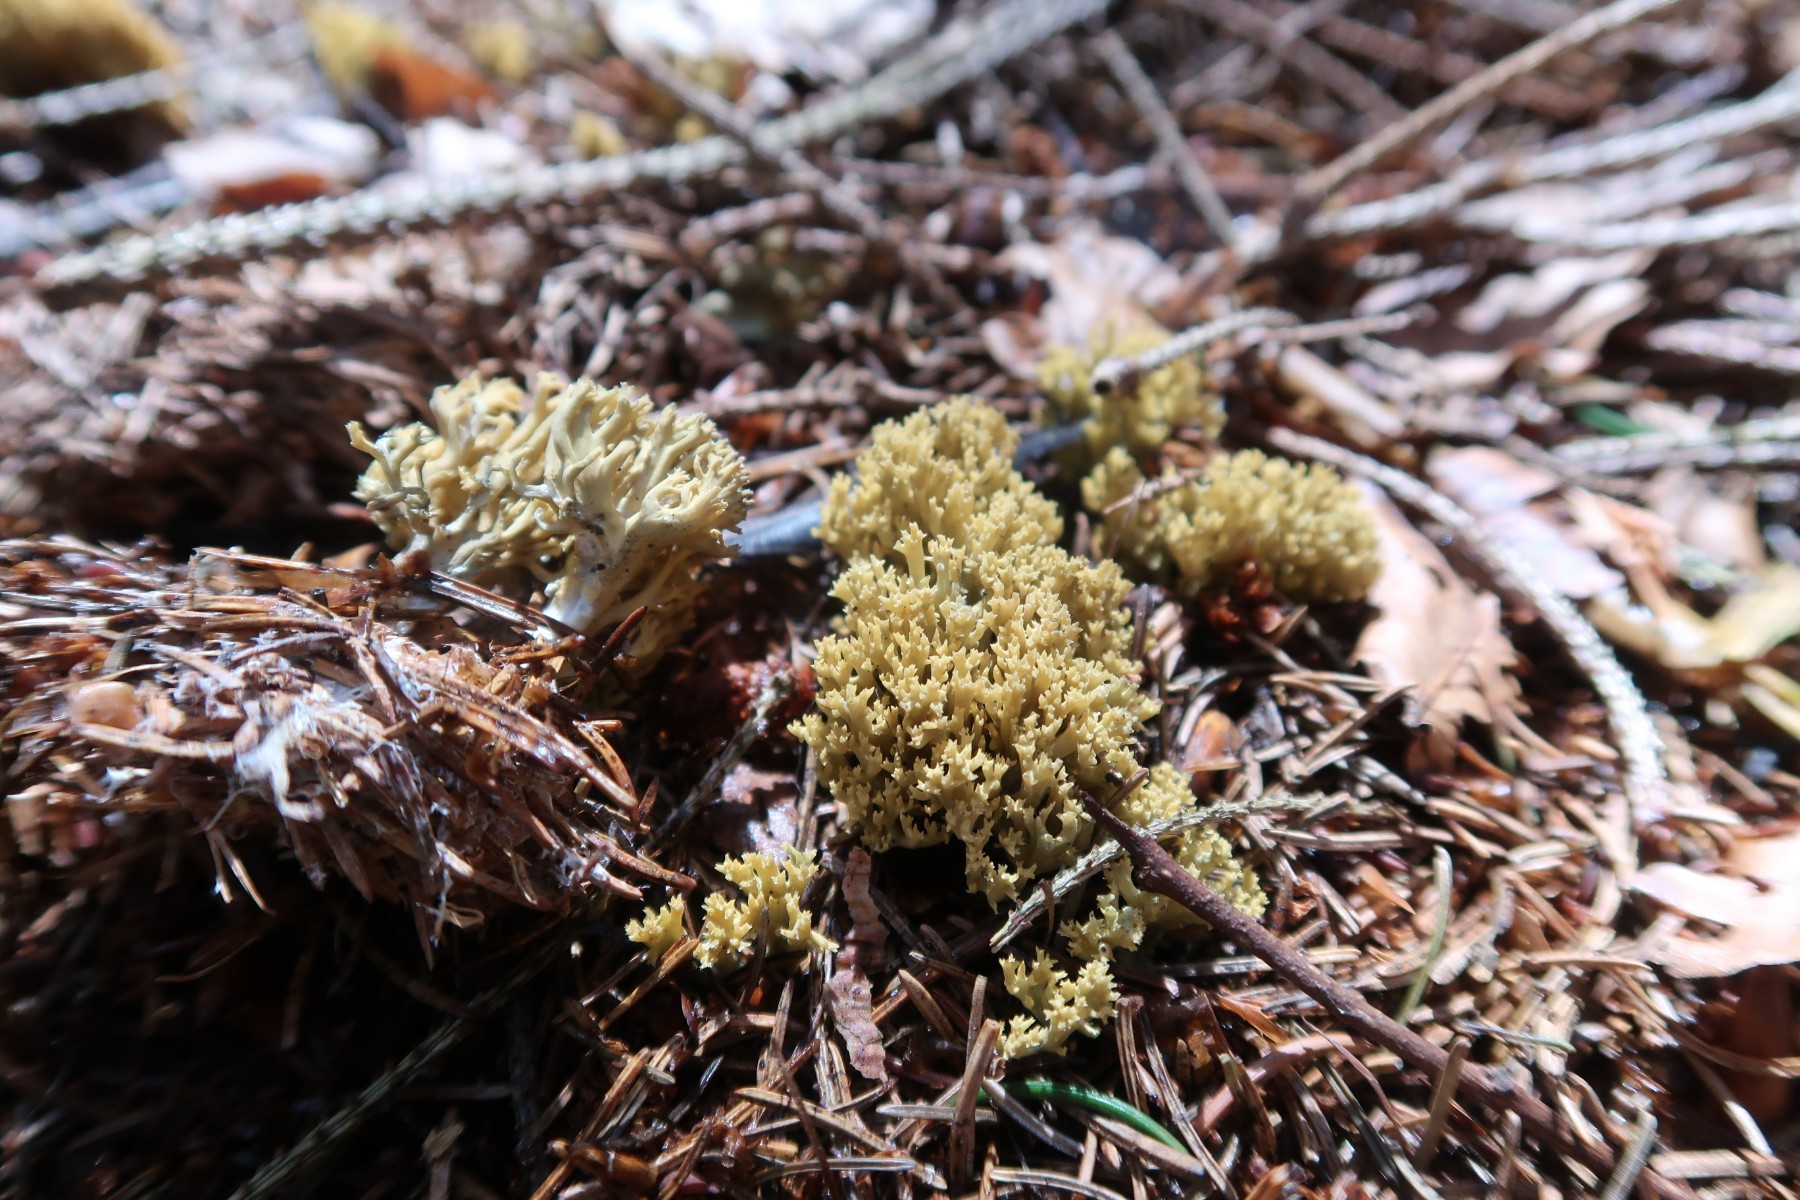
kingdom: Fungi
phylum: Basidiomycota
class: Agaricomycetes
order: Gomphales
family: Gomphaceae
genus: Phaeoclavulina
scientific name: Phaeoclavulina abietina
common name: gulgrøn koralsvamp
